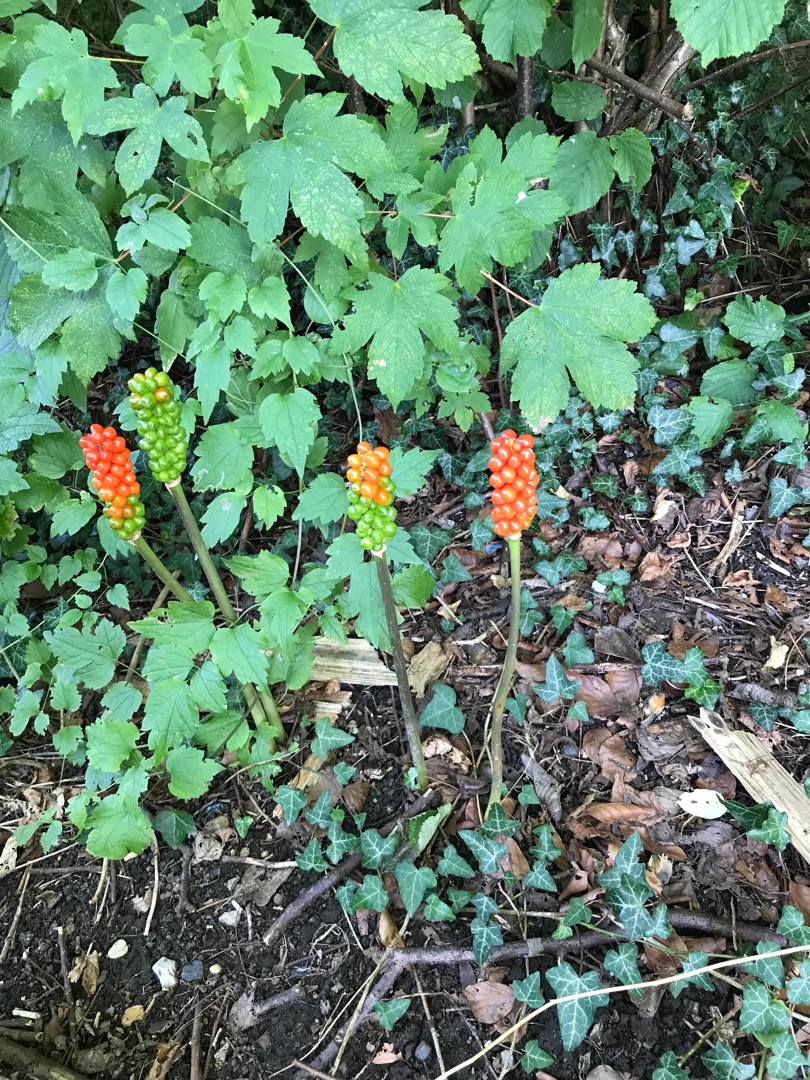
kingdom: Plantae
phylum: Tracheophyta
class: Liliopsida
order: Alismatales
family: Araceae
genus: Arum
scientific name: Arum
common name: Arumslægten
